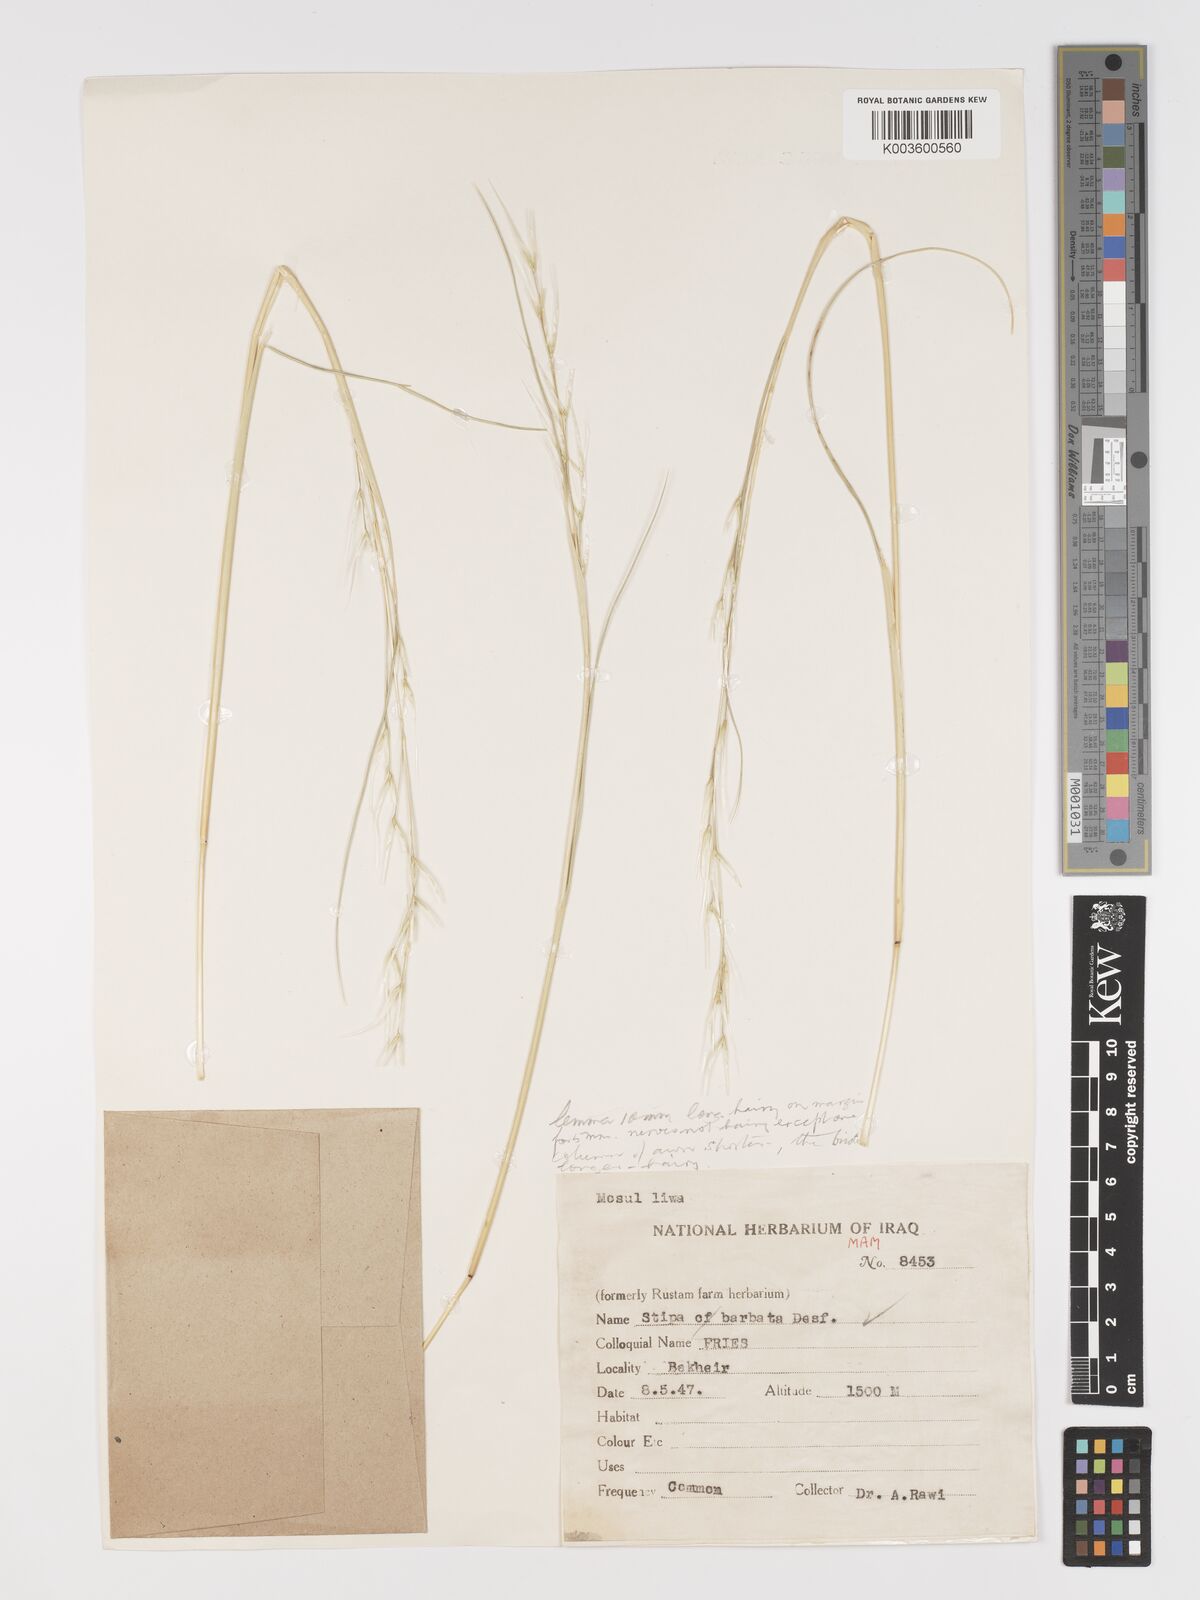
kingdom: Plantae
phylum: Tracheophyta
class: Liliopsida
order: Poales
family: Poaceae
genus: Stipa
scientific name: Stipa barbata
